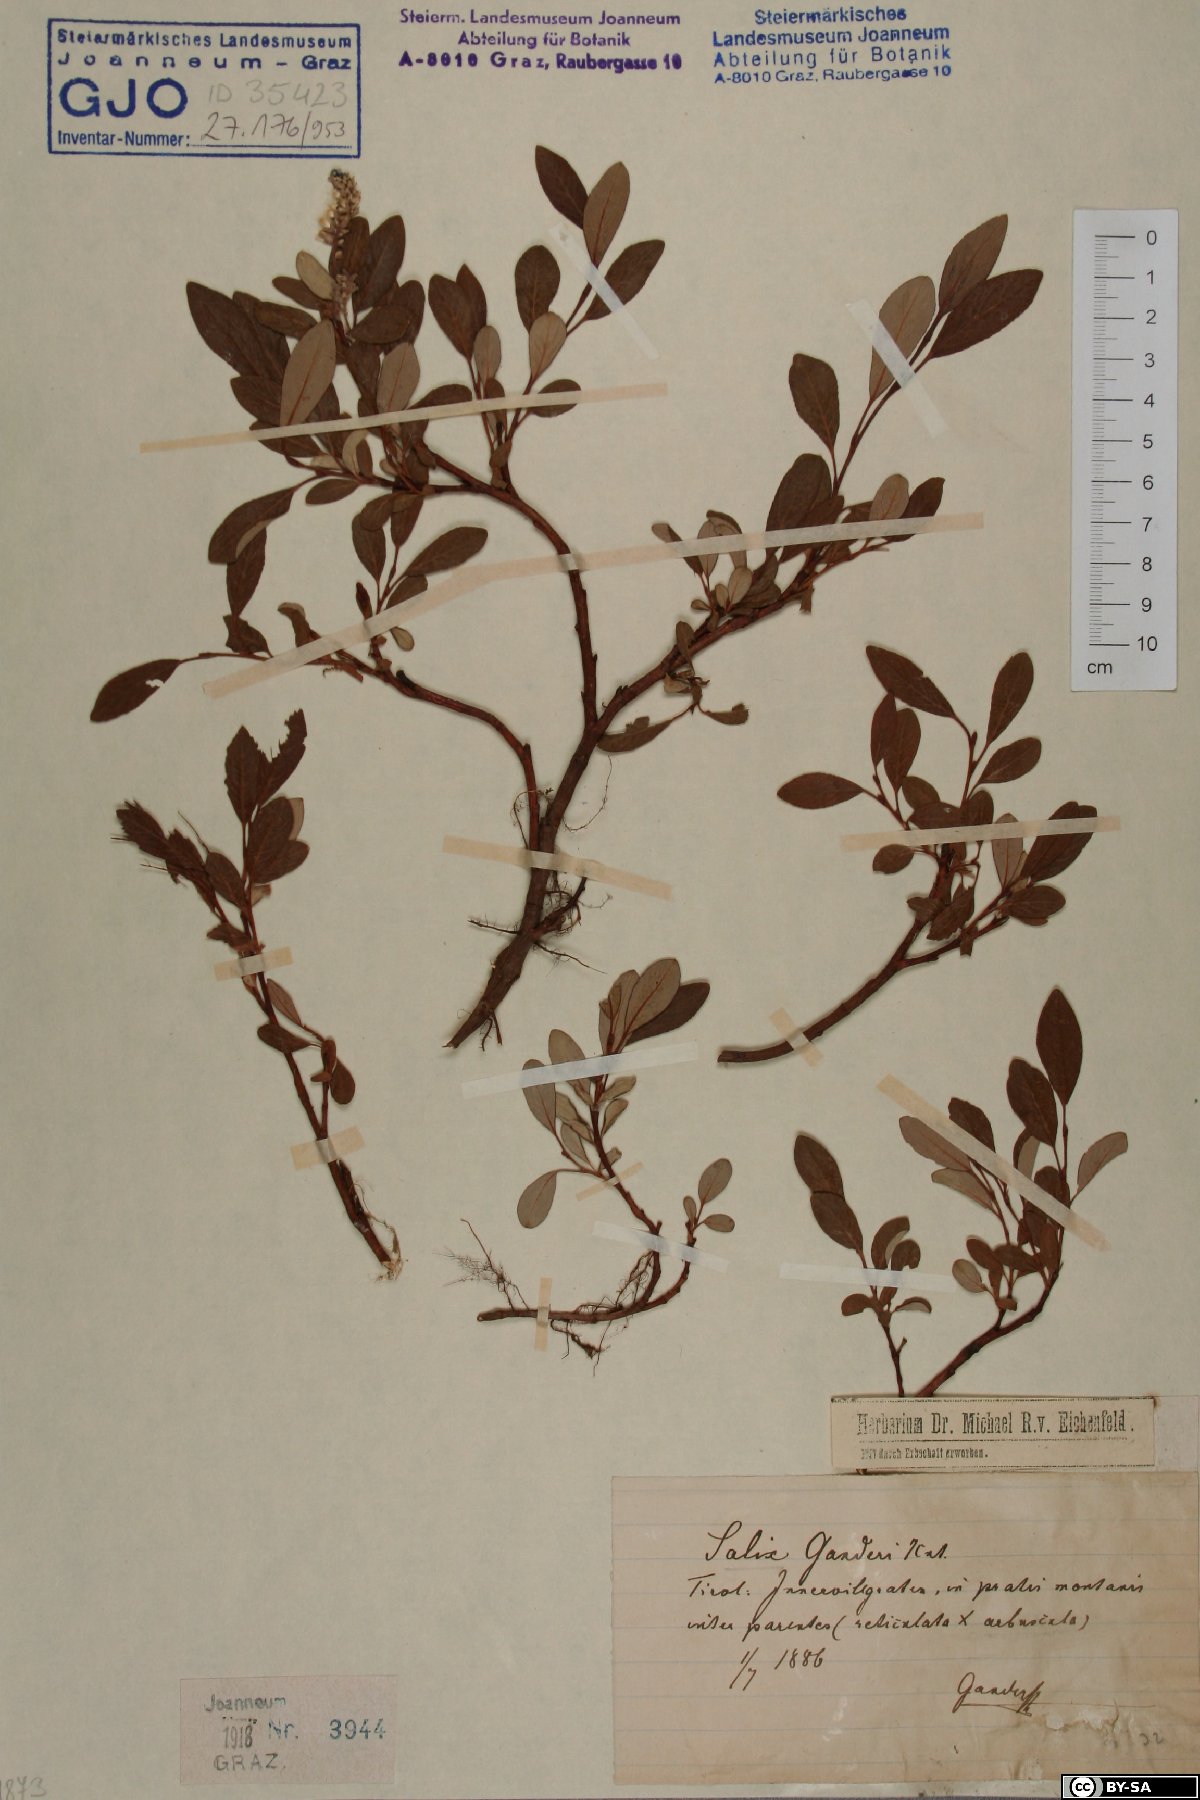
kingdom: Plantae
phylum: Tracheophyta
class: Magnoliopsida
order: Malpighiales
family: Salicaceae
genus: Salix
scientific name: Salix ganderi
